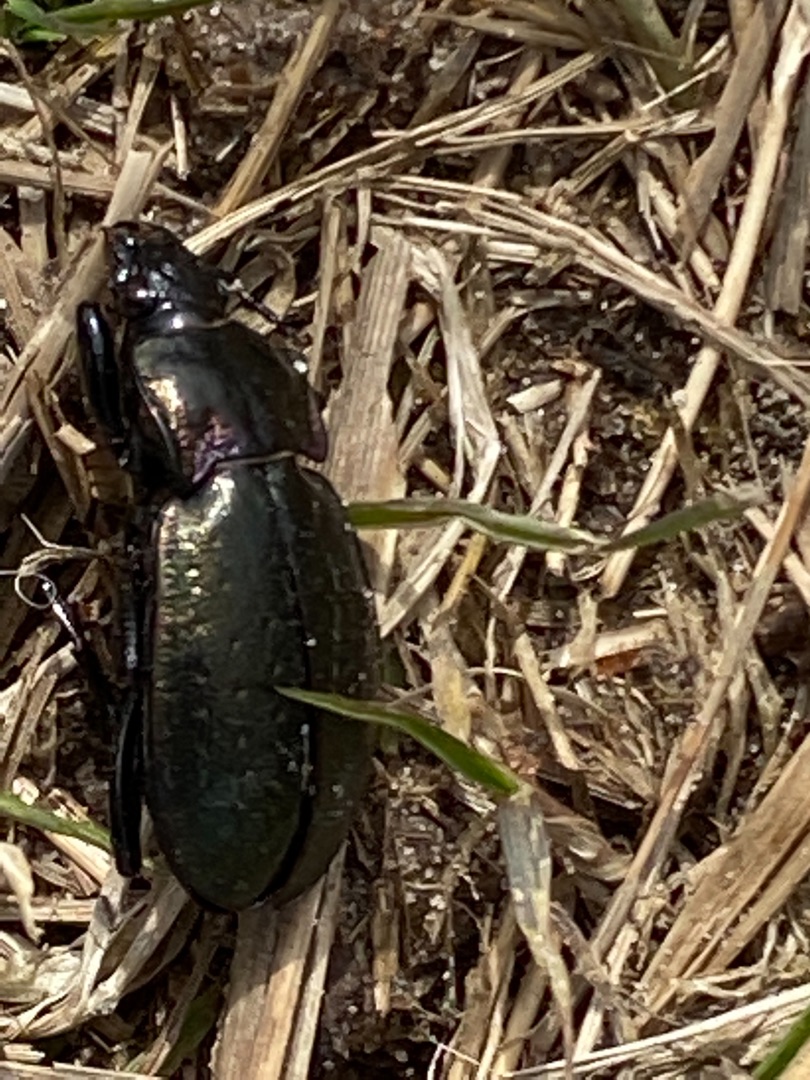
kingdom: Animalia
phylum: Arthropoda
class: Insecta
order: Coleoptera
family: Carabidae
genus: Carabus
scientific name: Carabus nemoralis
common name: Kratløber
